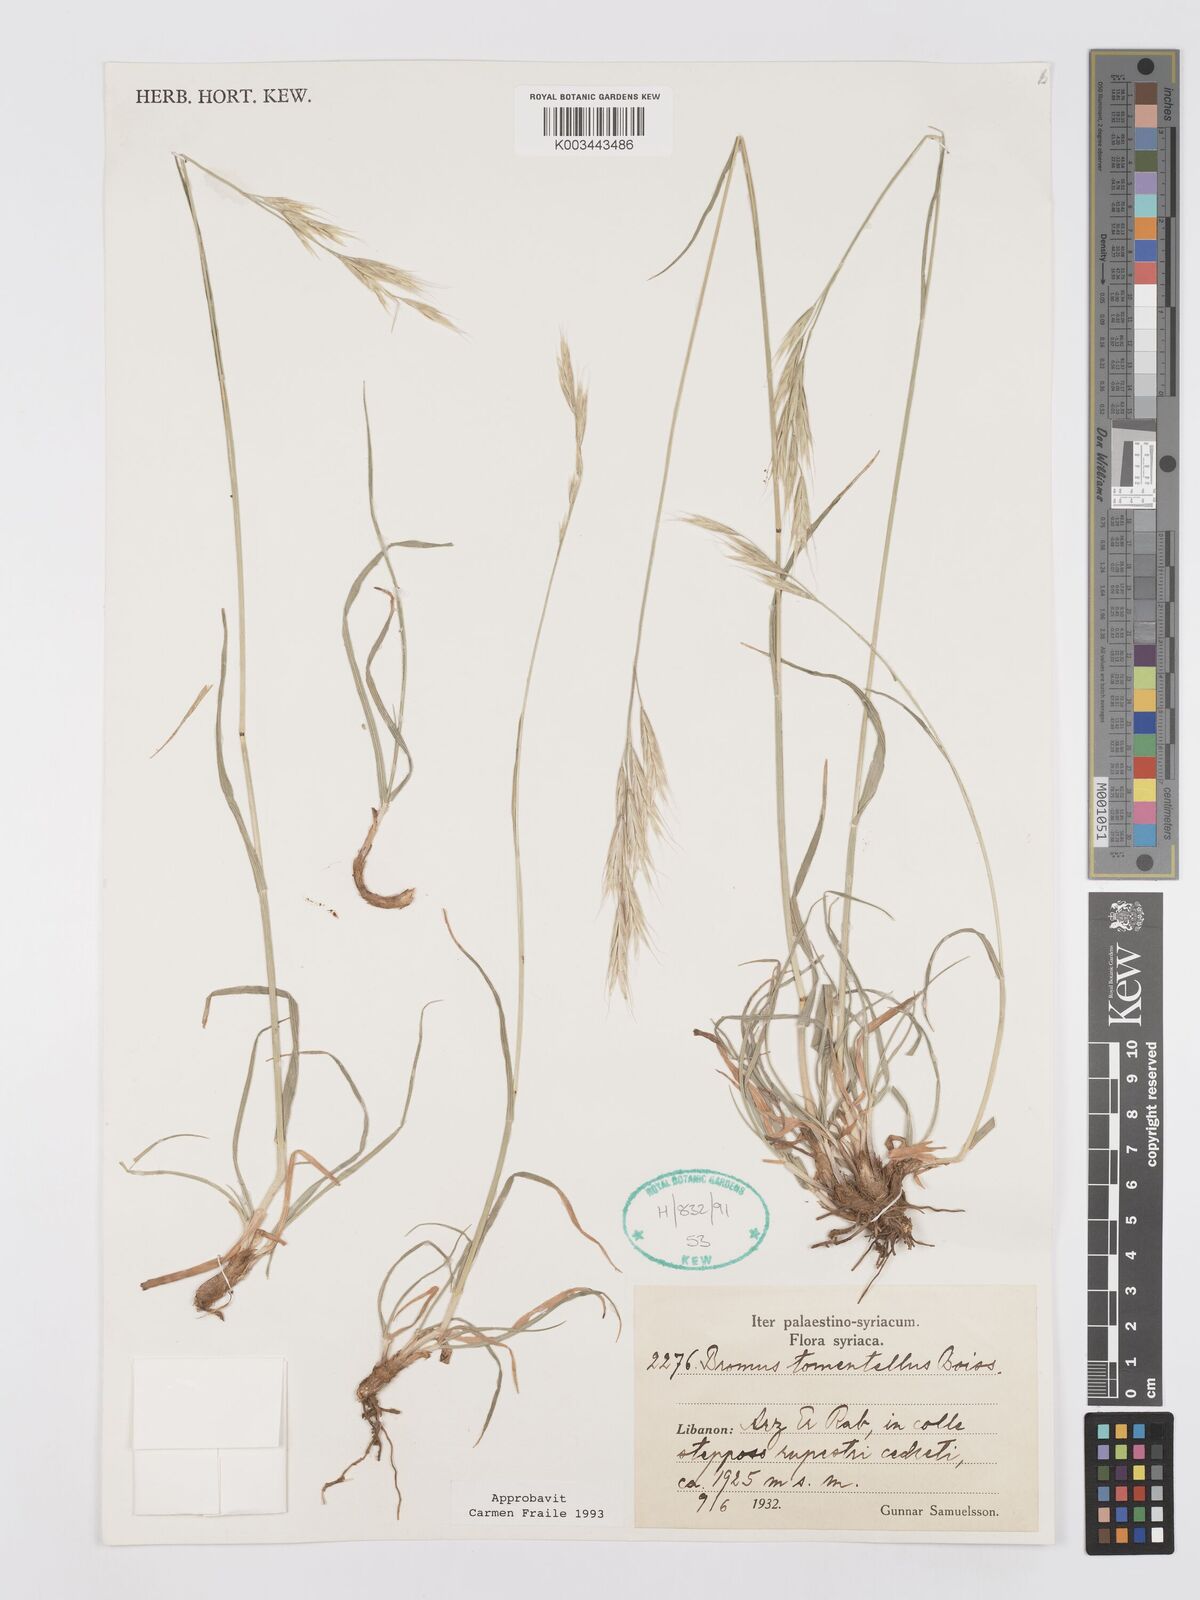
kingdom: Plantae
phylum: Tracheophyta
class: Liliopsida
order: Poales
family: Poaceae
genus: Bromus
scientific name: Bromus tomentellus
